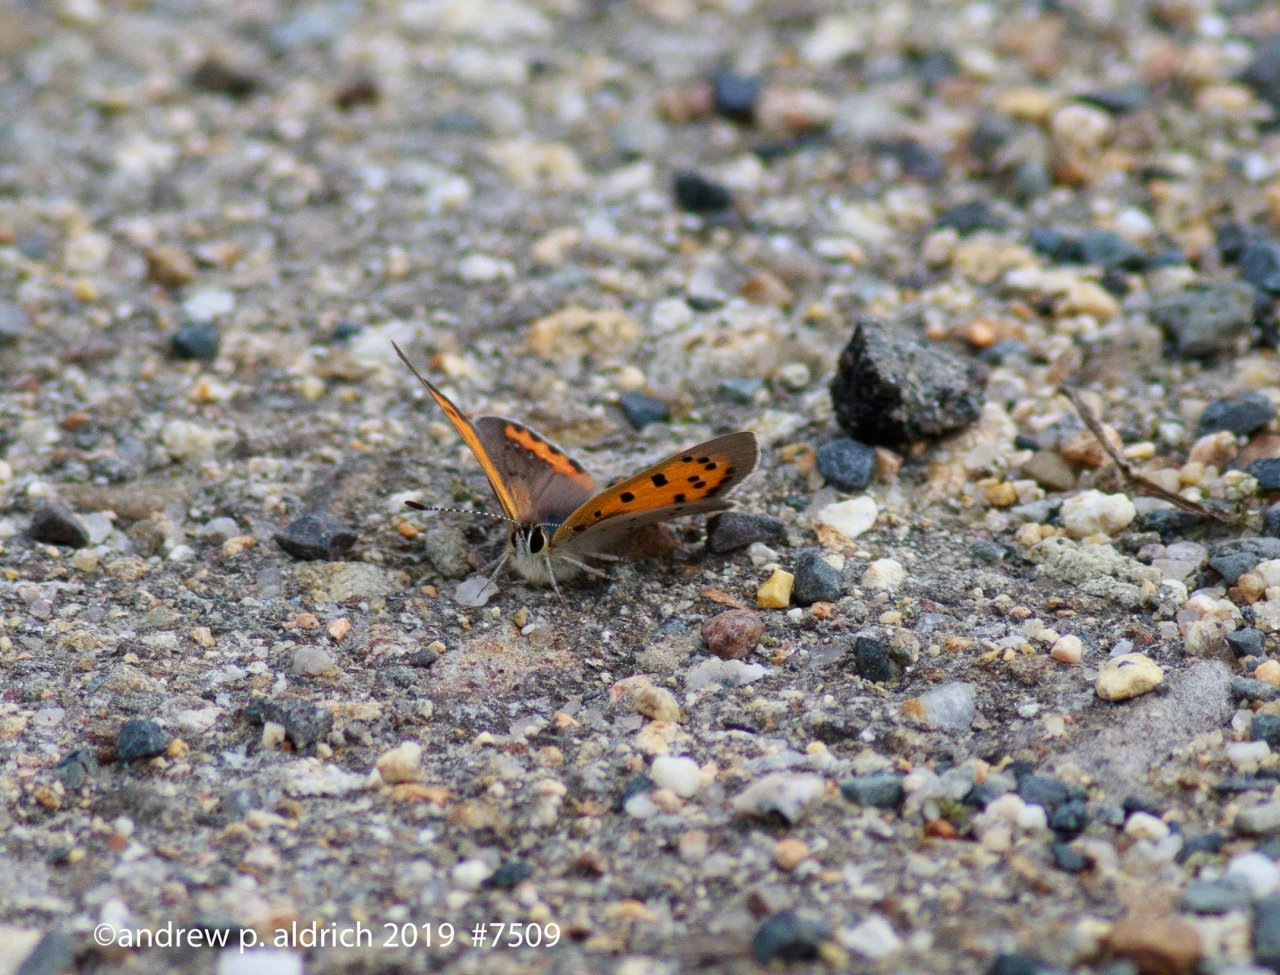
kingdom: Animalia
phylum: Arthropoda
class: Insecta
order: Lepidoptera
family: Lycaenidae
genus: Lycaena
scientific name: Lycaena phlaeas
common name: American Copper
